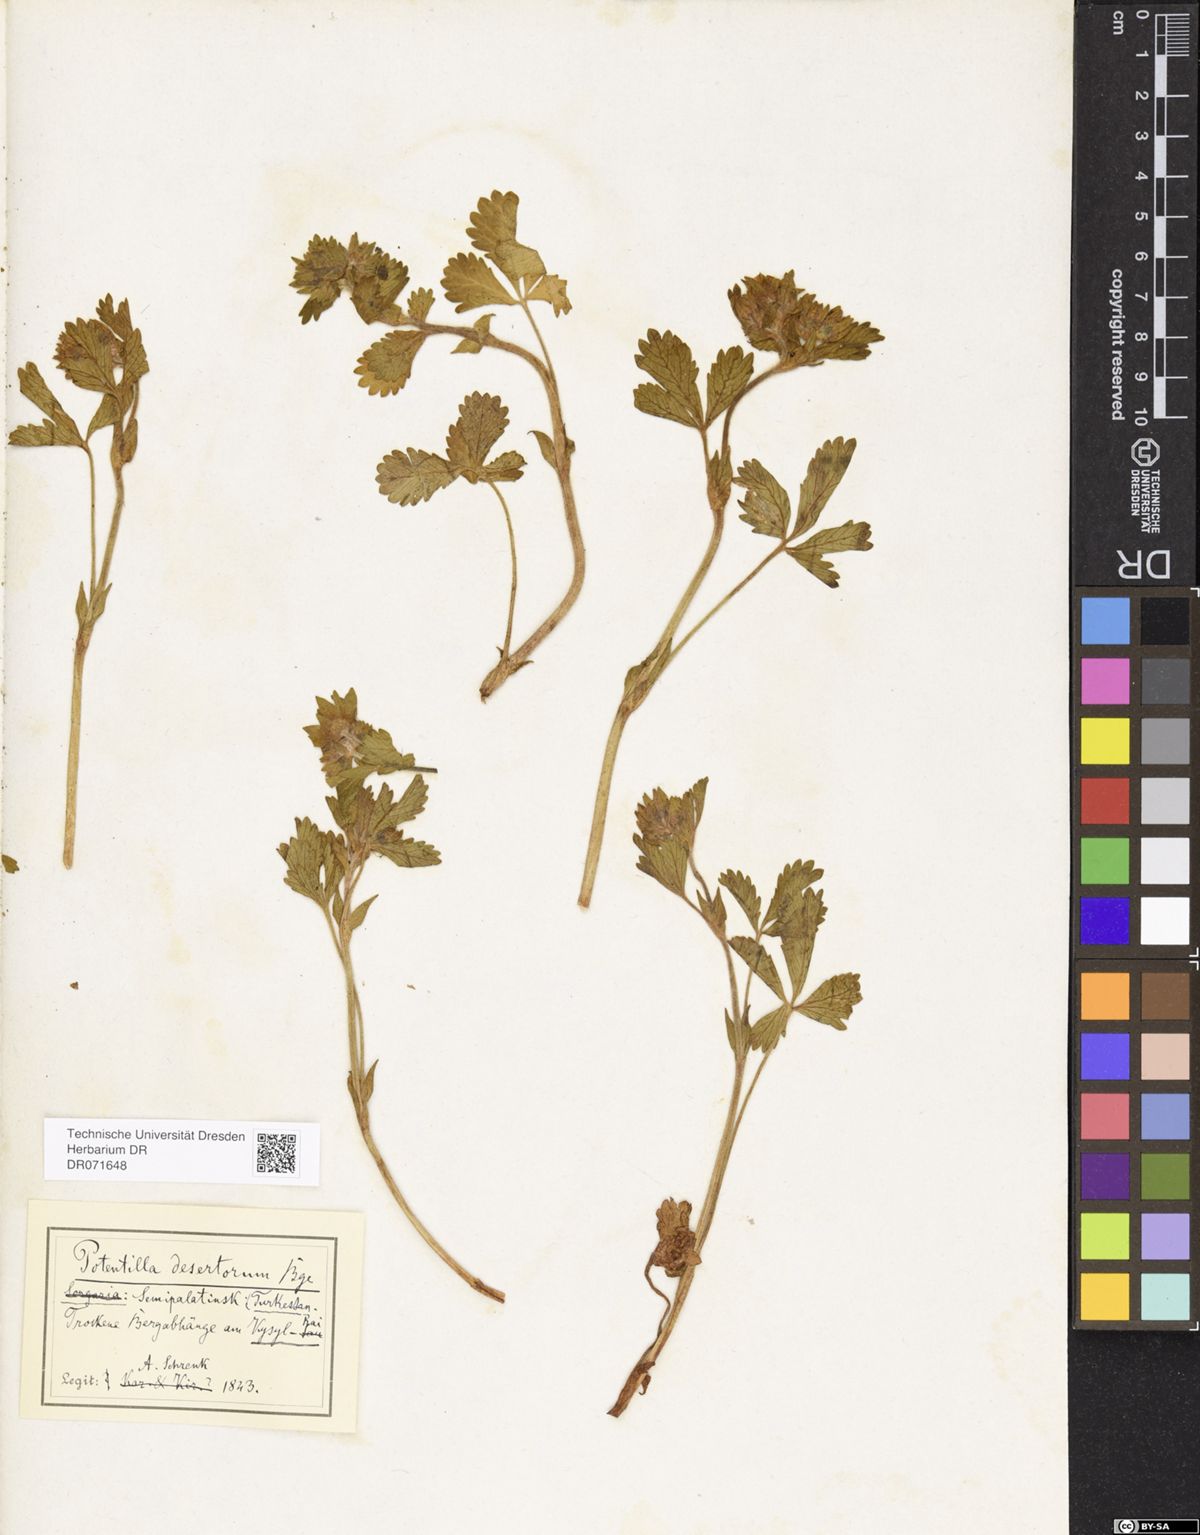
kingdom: Plantae
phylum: Tracheophyta
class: Magnoliopsida
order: Rosales
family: Rosaceae
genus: Potentilla
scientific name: Potentilla desertorum
